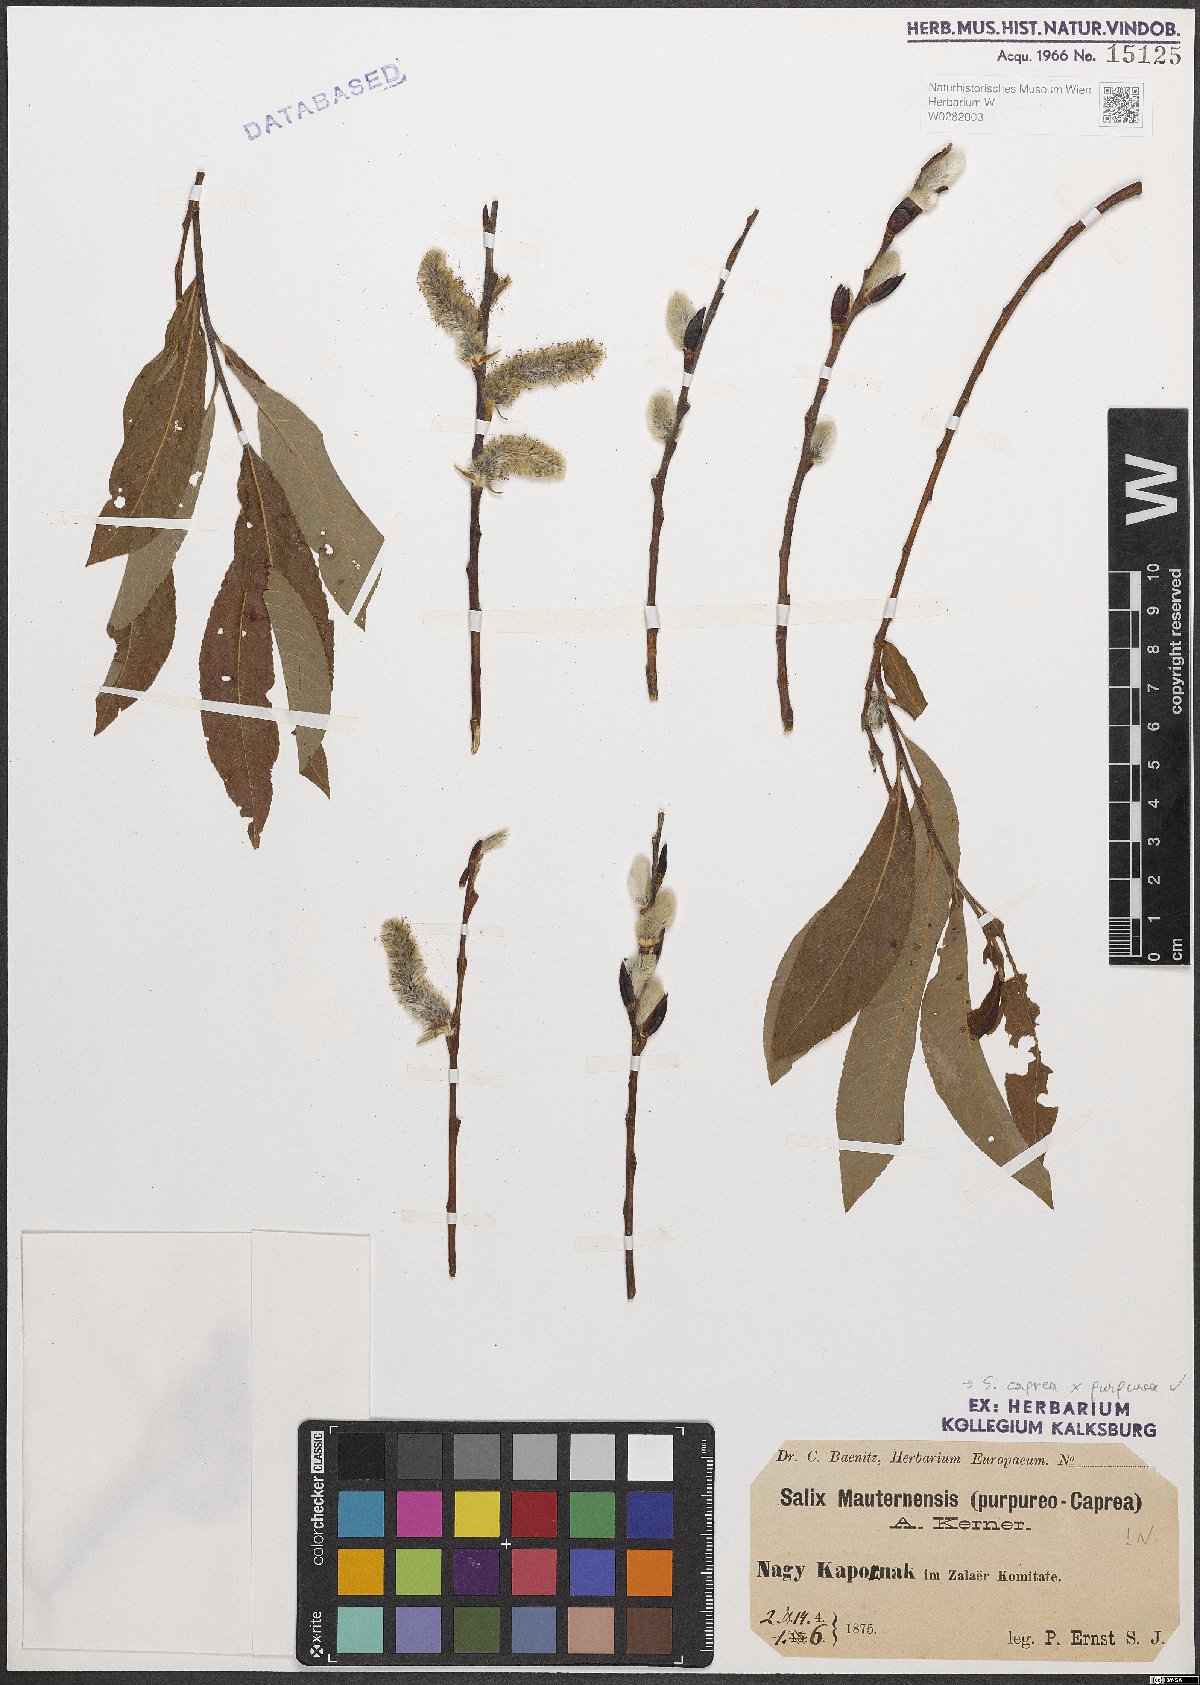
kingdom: Plantae
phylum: Tracheophyta
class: Magnoliopsida
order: Malpighiales
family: Salicaceae
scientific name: Salicaceae
